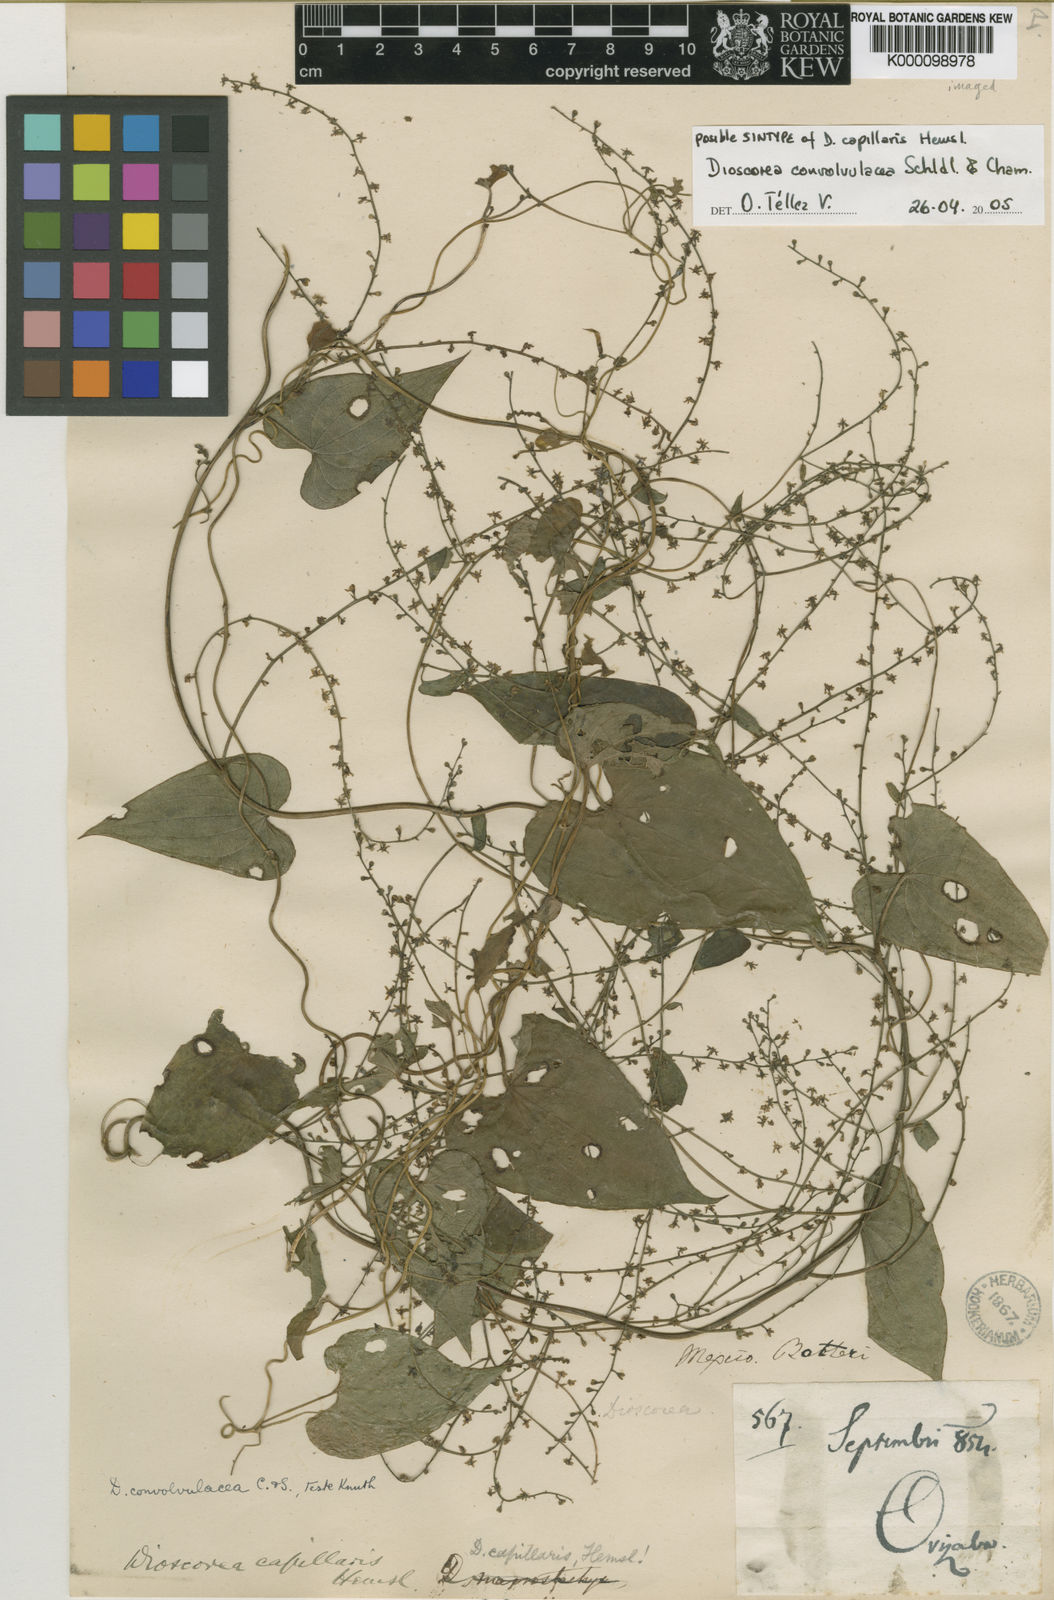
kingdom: Plantae
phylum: Tracheophyta
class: Liliopsida
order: Dioscoreales
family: Dioscoreaceae
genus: Dioscorea
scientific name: Dioscorea convolvulacea
